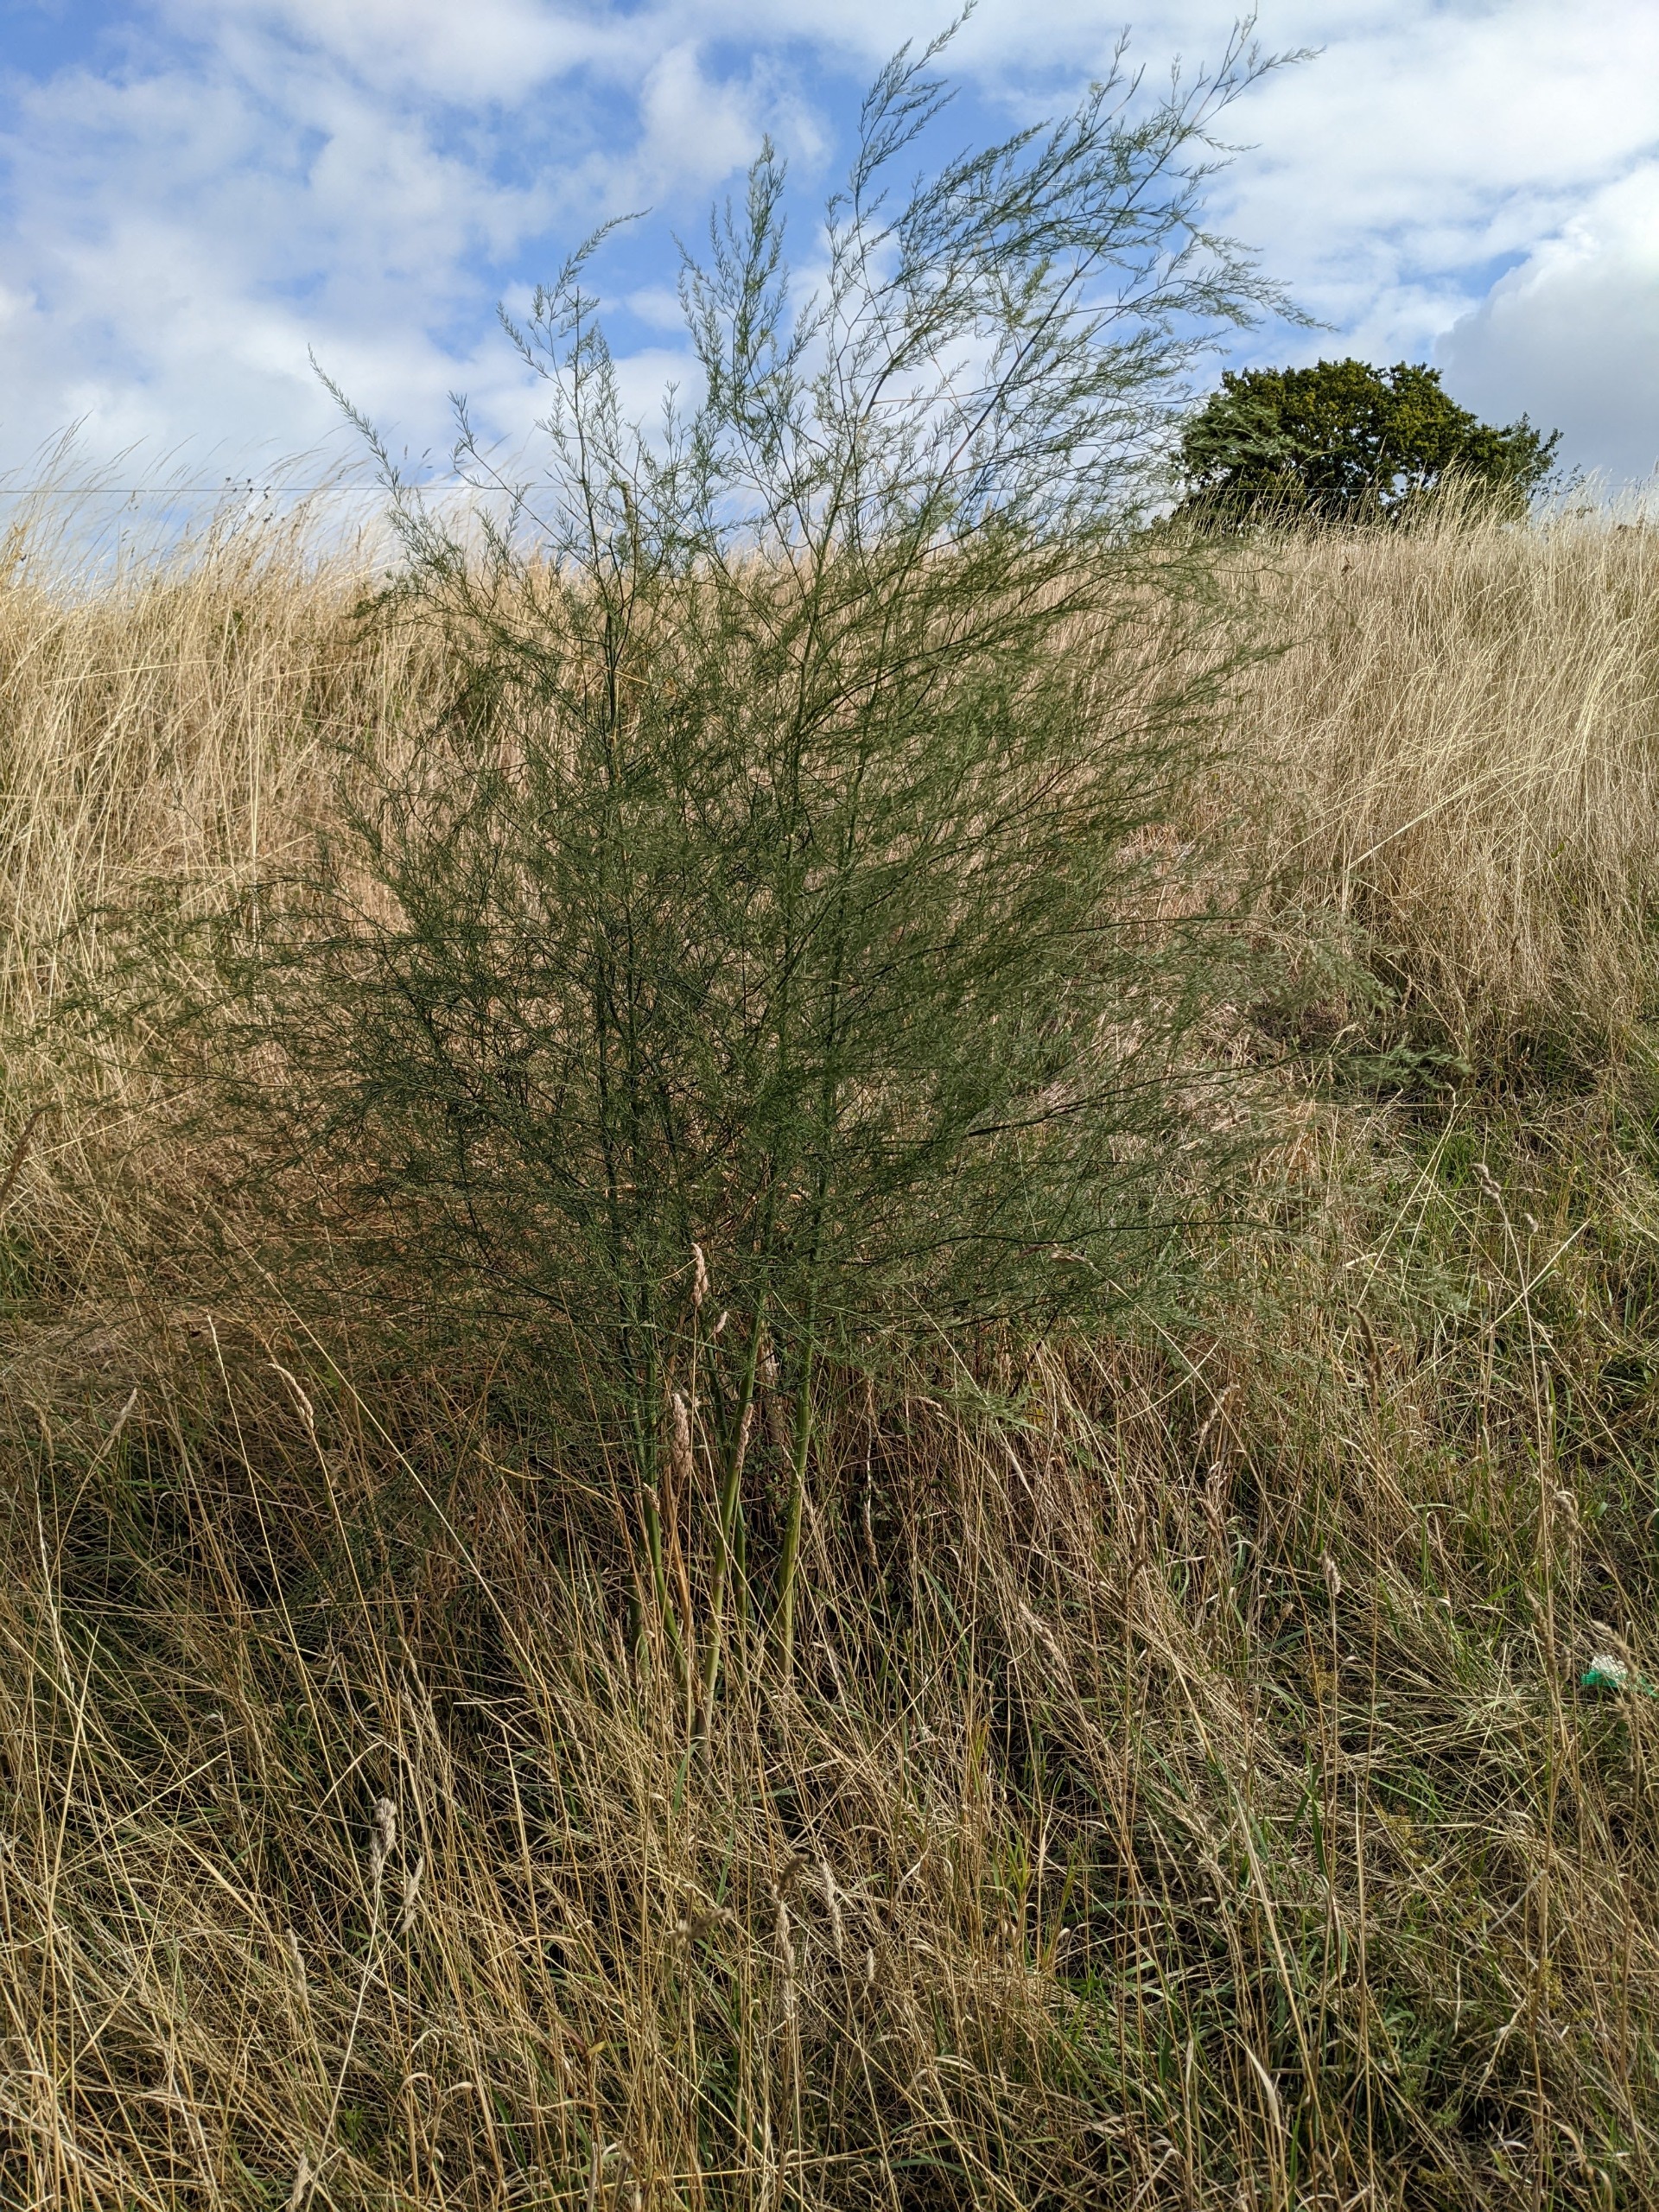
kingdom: Plantae
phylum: Tracheophyta
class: Liliopsida
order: Asparagales
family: Asparagaceae
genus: Asparagus
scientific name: Asparagus officinalis
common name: Asparges
